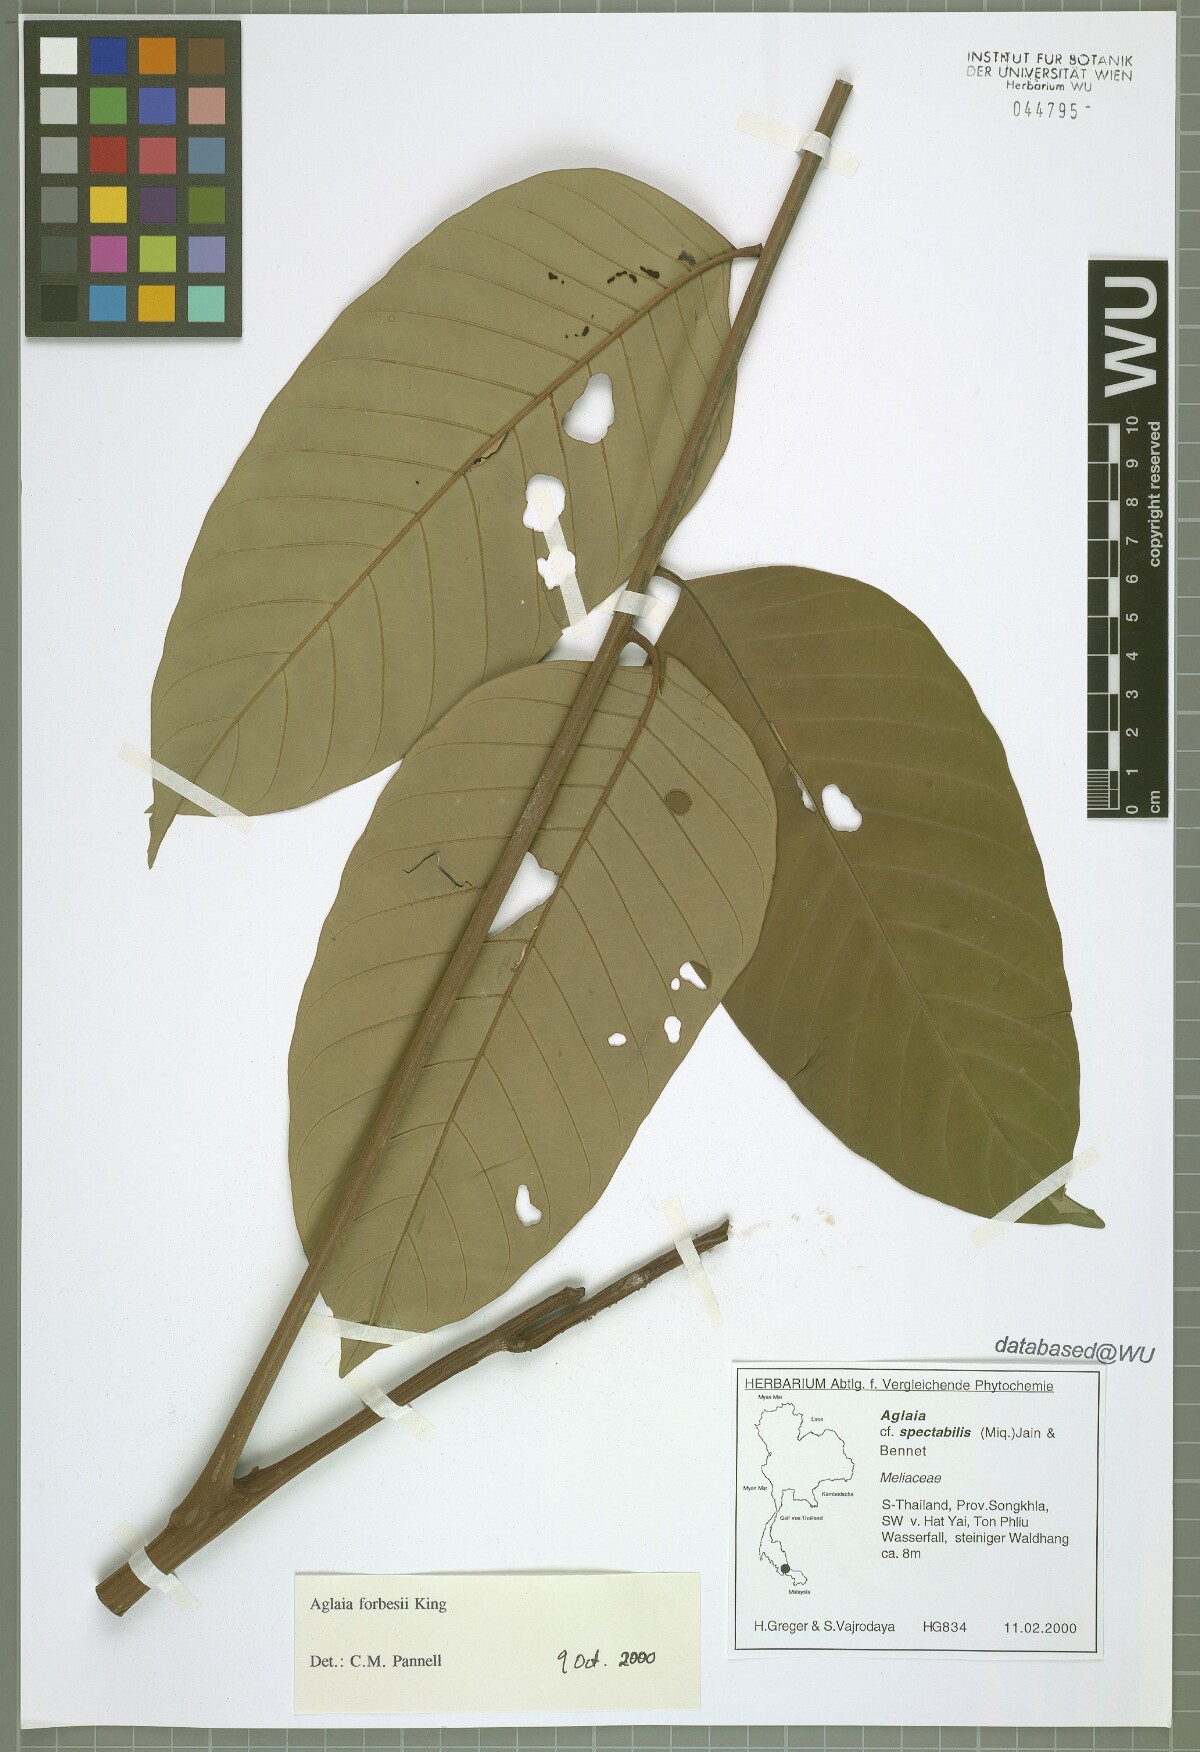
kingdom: Plantae
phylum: Tracheophyta
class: Magnoliopsida
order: Sapindales
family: Meliaceae
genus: Aglaia
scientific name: Aglaia forbesii
